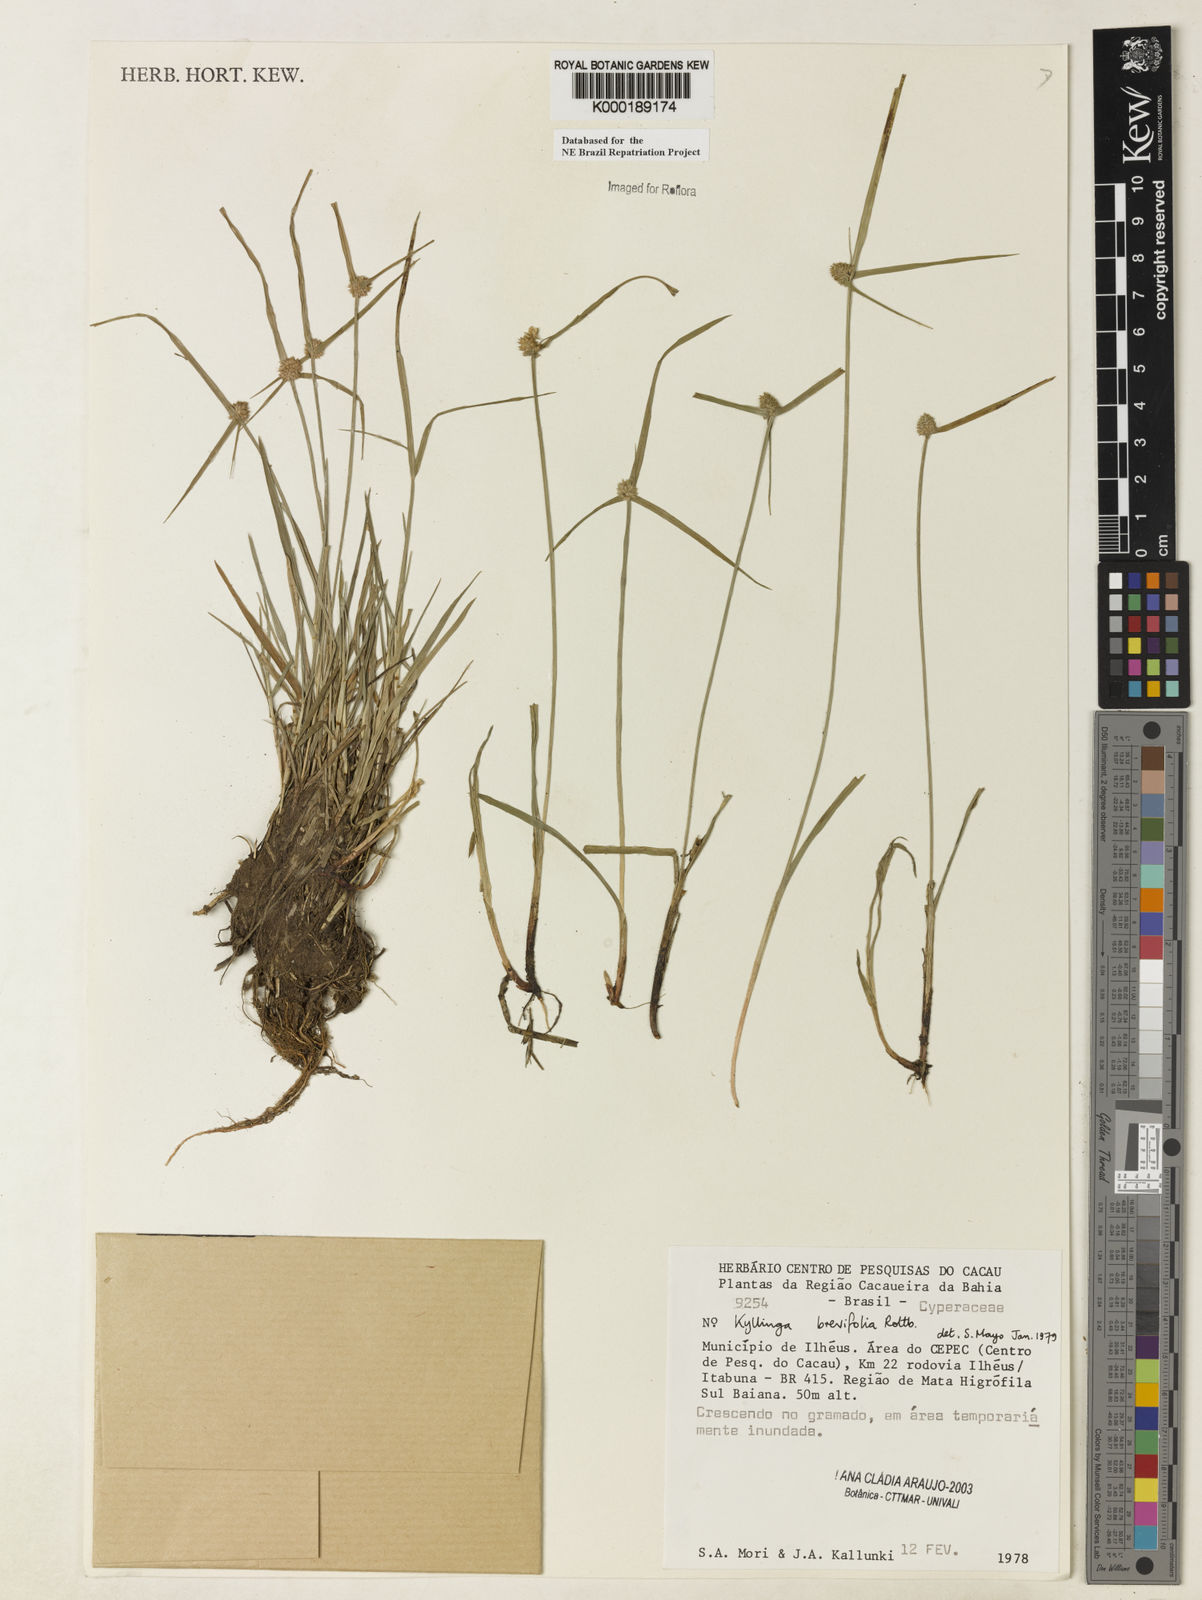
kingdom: Plantae
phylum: Tracheophyta
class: Liliopsida
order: Poales
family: Cyperaceae
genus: Cyperus
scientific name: Cyperus brevifolius
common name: Globe kyllinga
